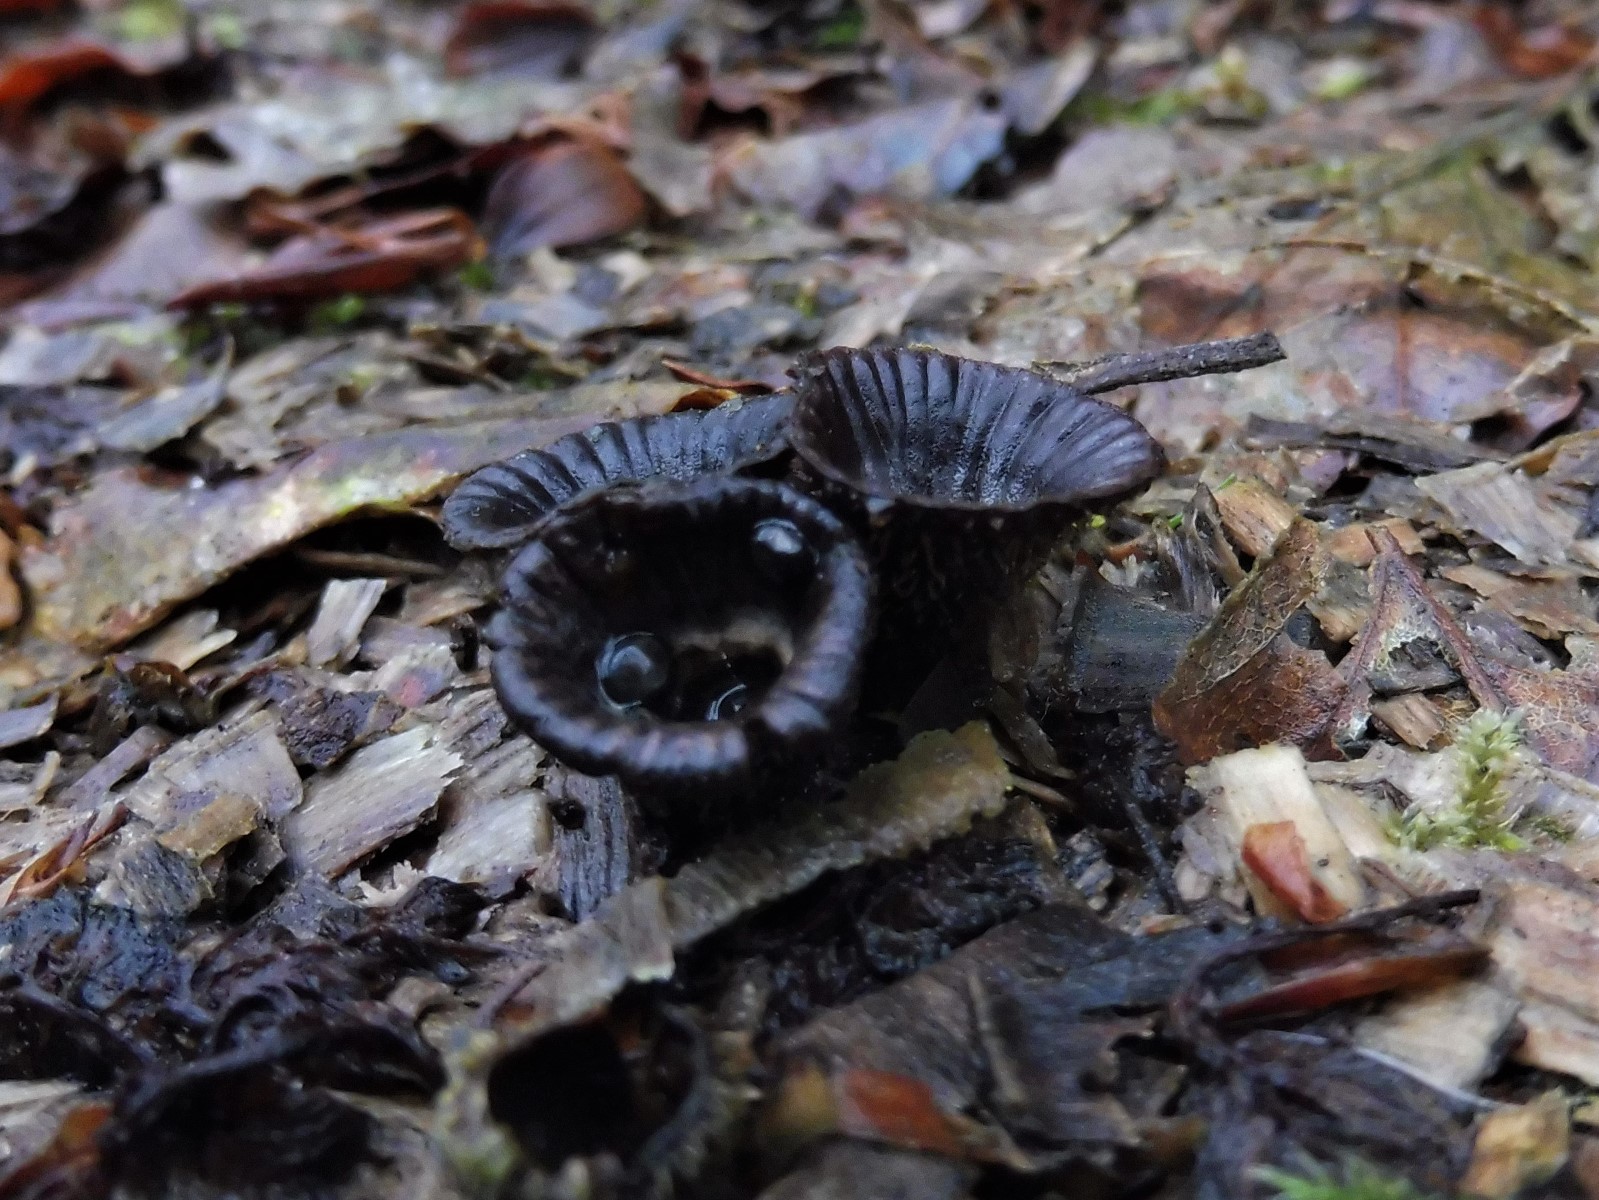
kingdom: Fungi
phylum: Basidiomycota
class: Agaricomycetes
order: Agaricales
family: Agaricaceae
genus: Cyathus
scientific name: Cyathus striatus
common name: stribet redesvamp
